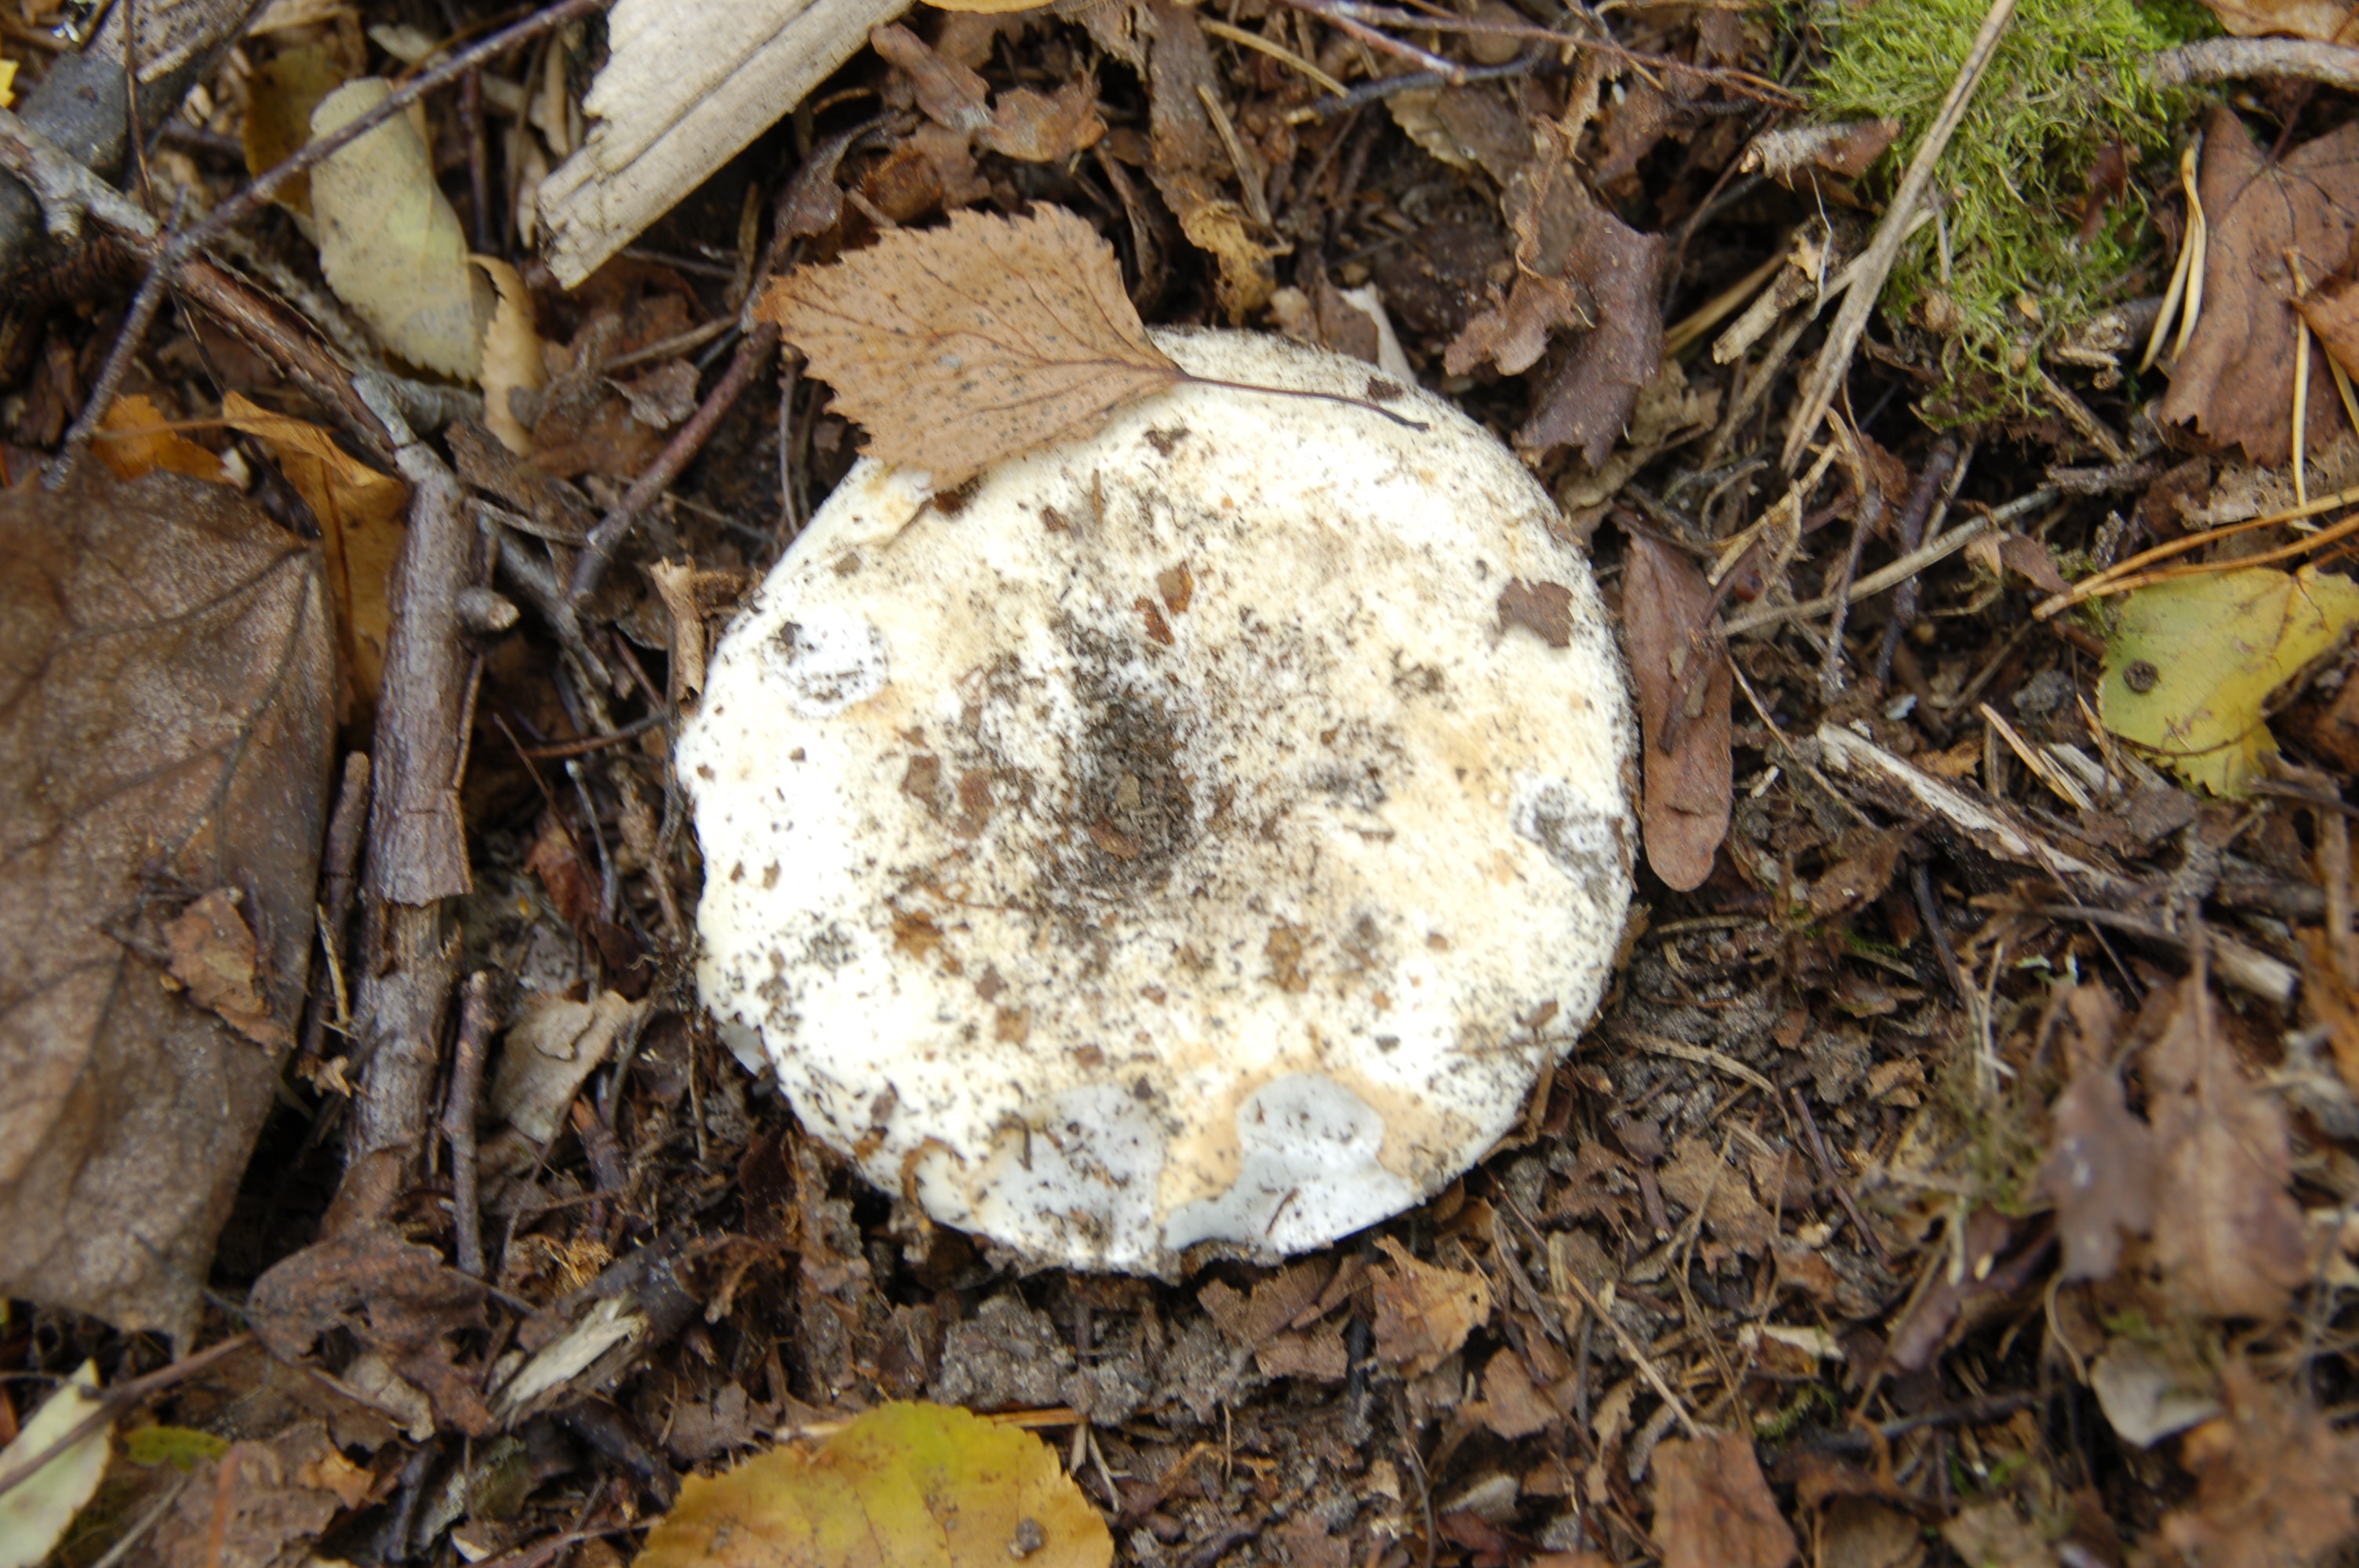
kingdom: Fungi
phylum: Basidiomycota
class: Agaricomycetes
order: Russulales
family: Russulaceae
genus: Russula
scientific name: Russula chloroides
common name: Blue band brittlegill
